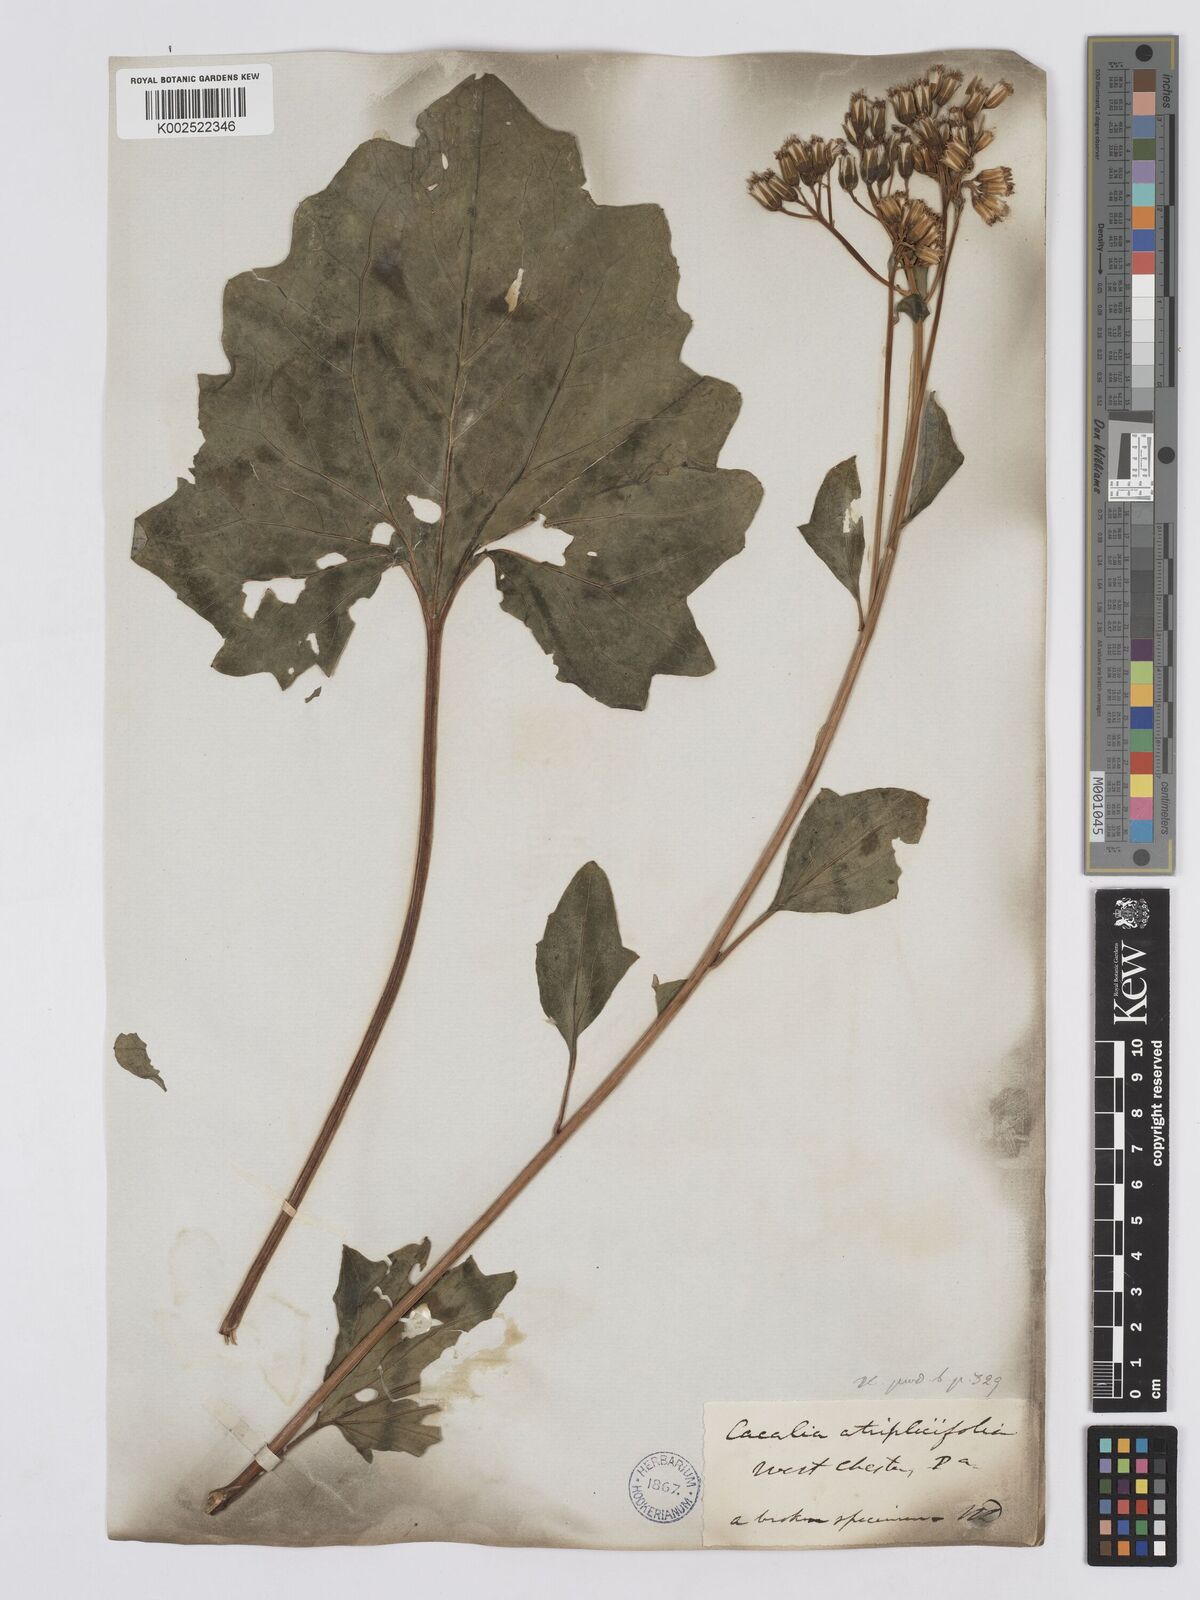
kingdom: Plantae
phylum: Tracheophyta
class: Magnoliopsida
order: Asterales
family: Asteraceae
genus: Arnoglossum
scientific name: Arnoglossum atriplicifolium
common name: Pale indian-plantain
